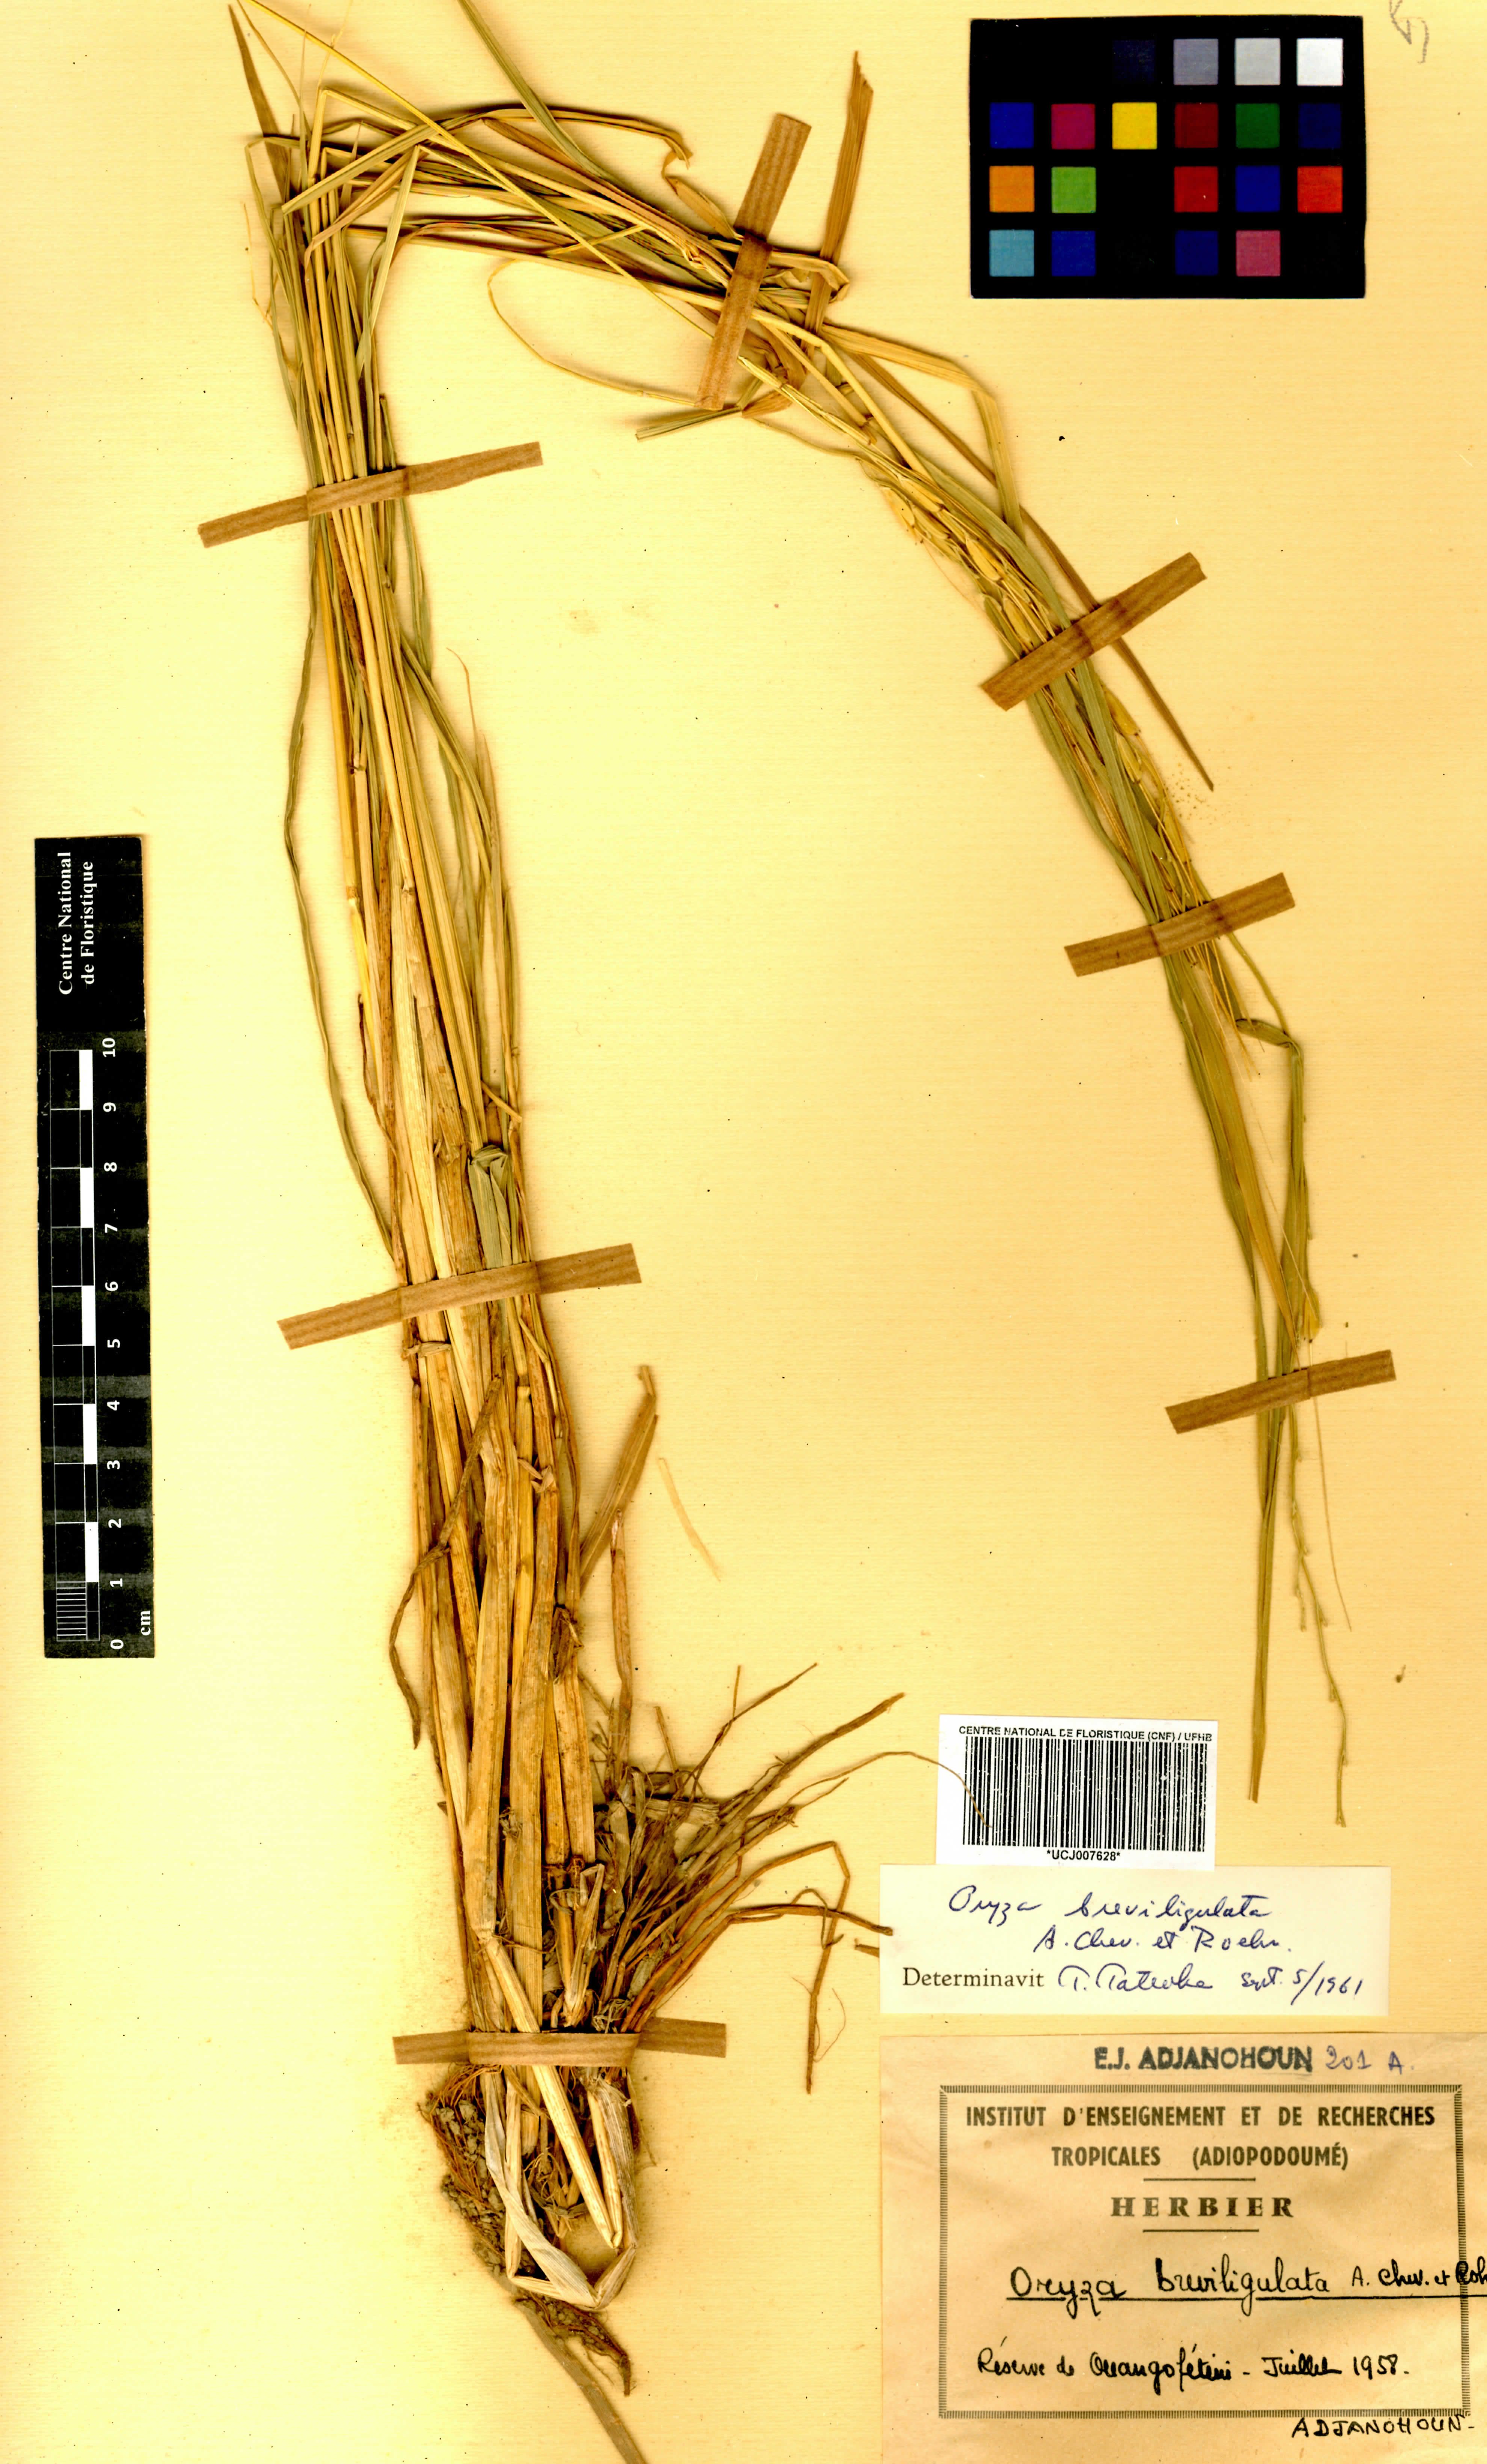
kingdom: Plantae
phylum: Tracheophyta
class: Liliopsida
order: Poales
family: Poaceae
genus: Oryza
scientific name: Oryza barthii
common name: Wild rice
